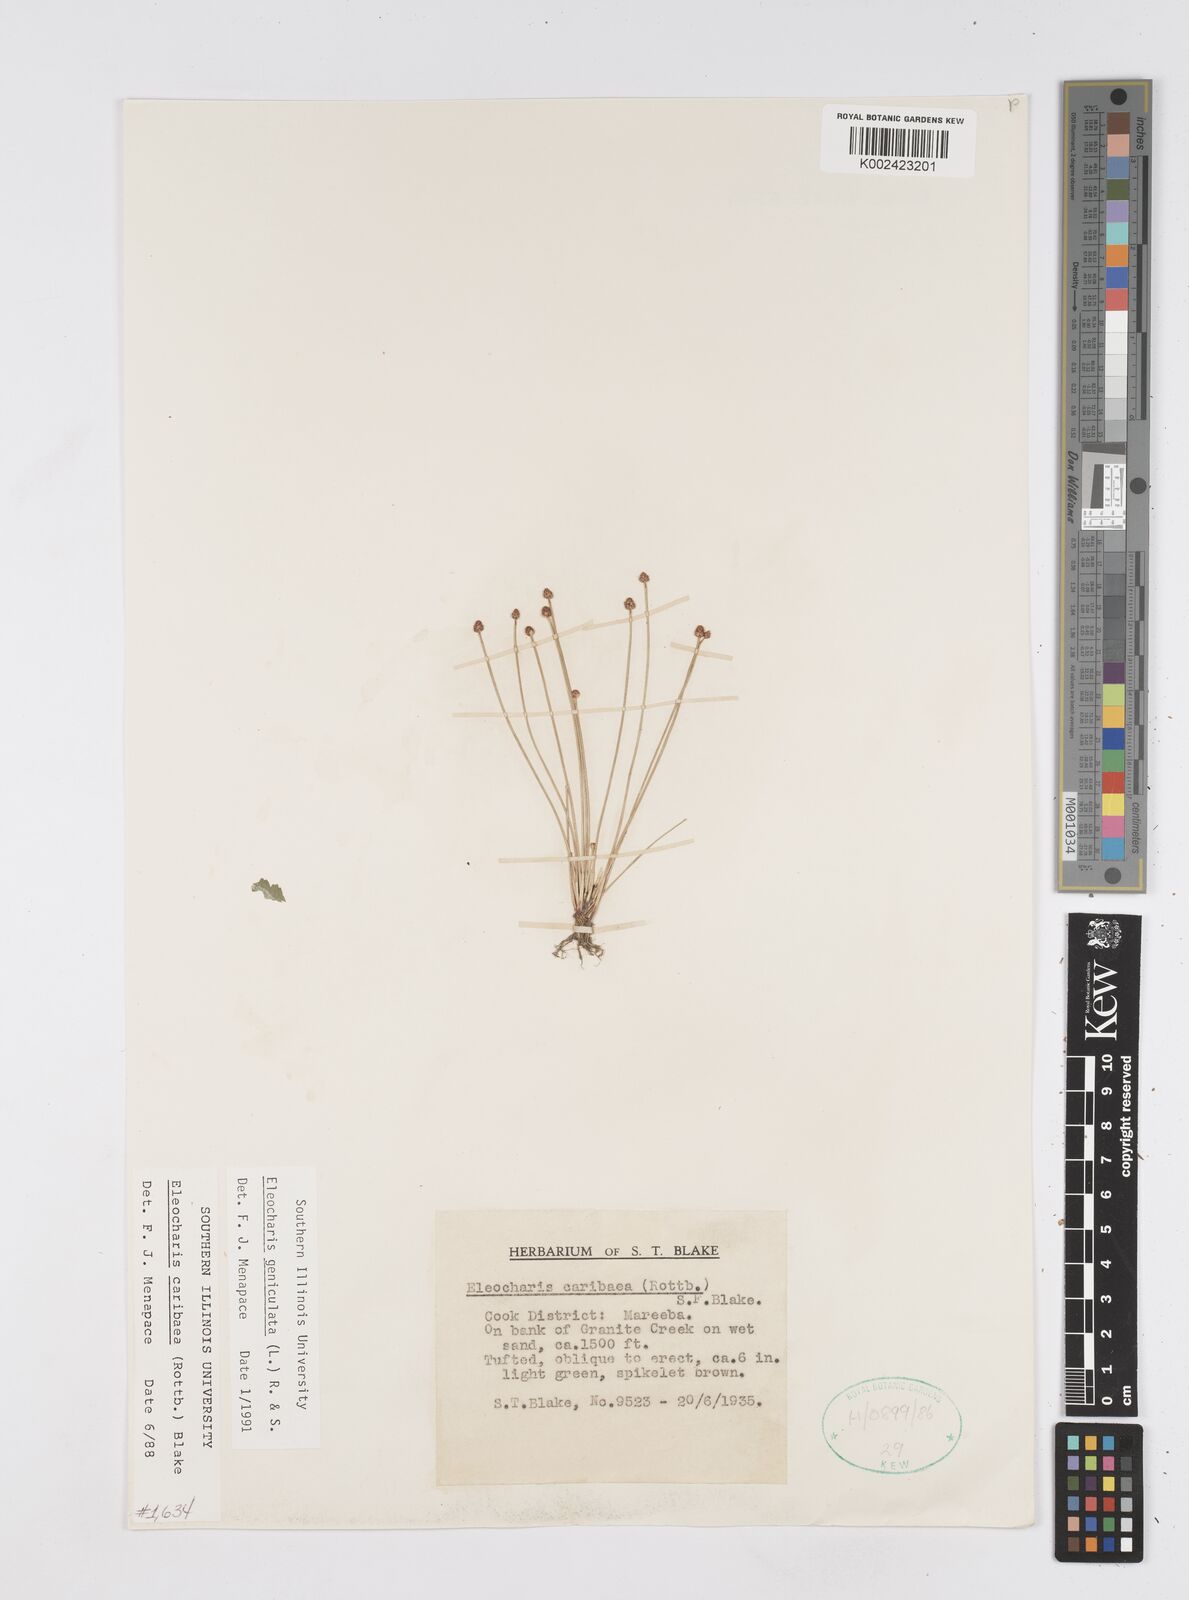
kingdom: Plantae
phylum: Tracheophyta
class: Liliopsida
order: Poales
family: Cyperaceae
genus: Eleocharis
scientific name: Eleocharis geniculata
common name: Canada spikesedge
